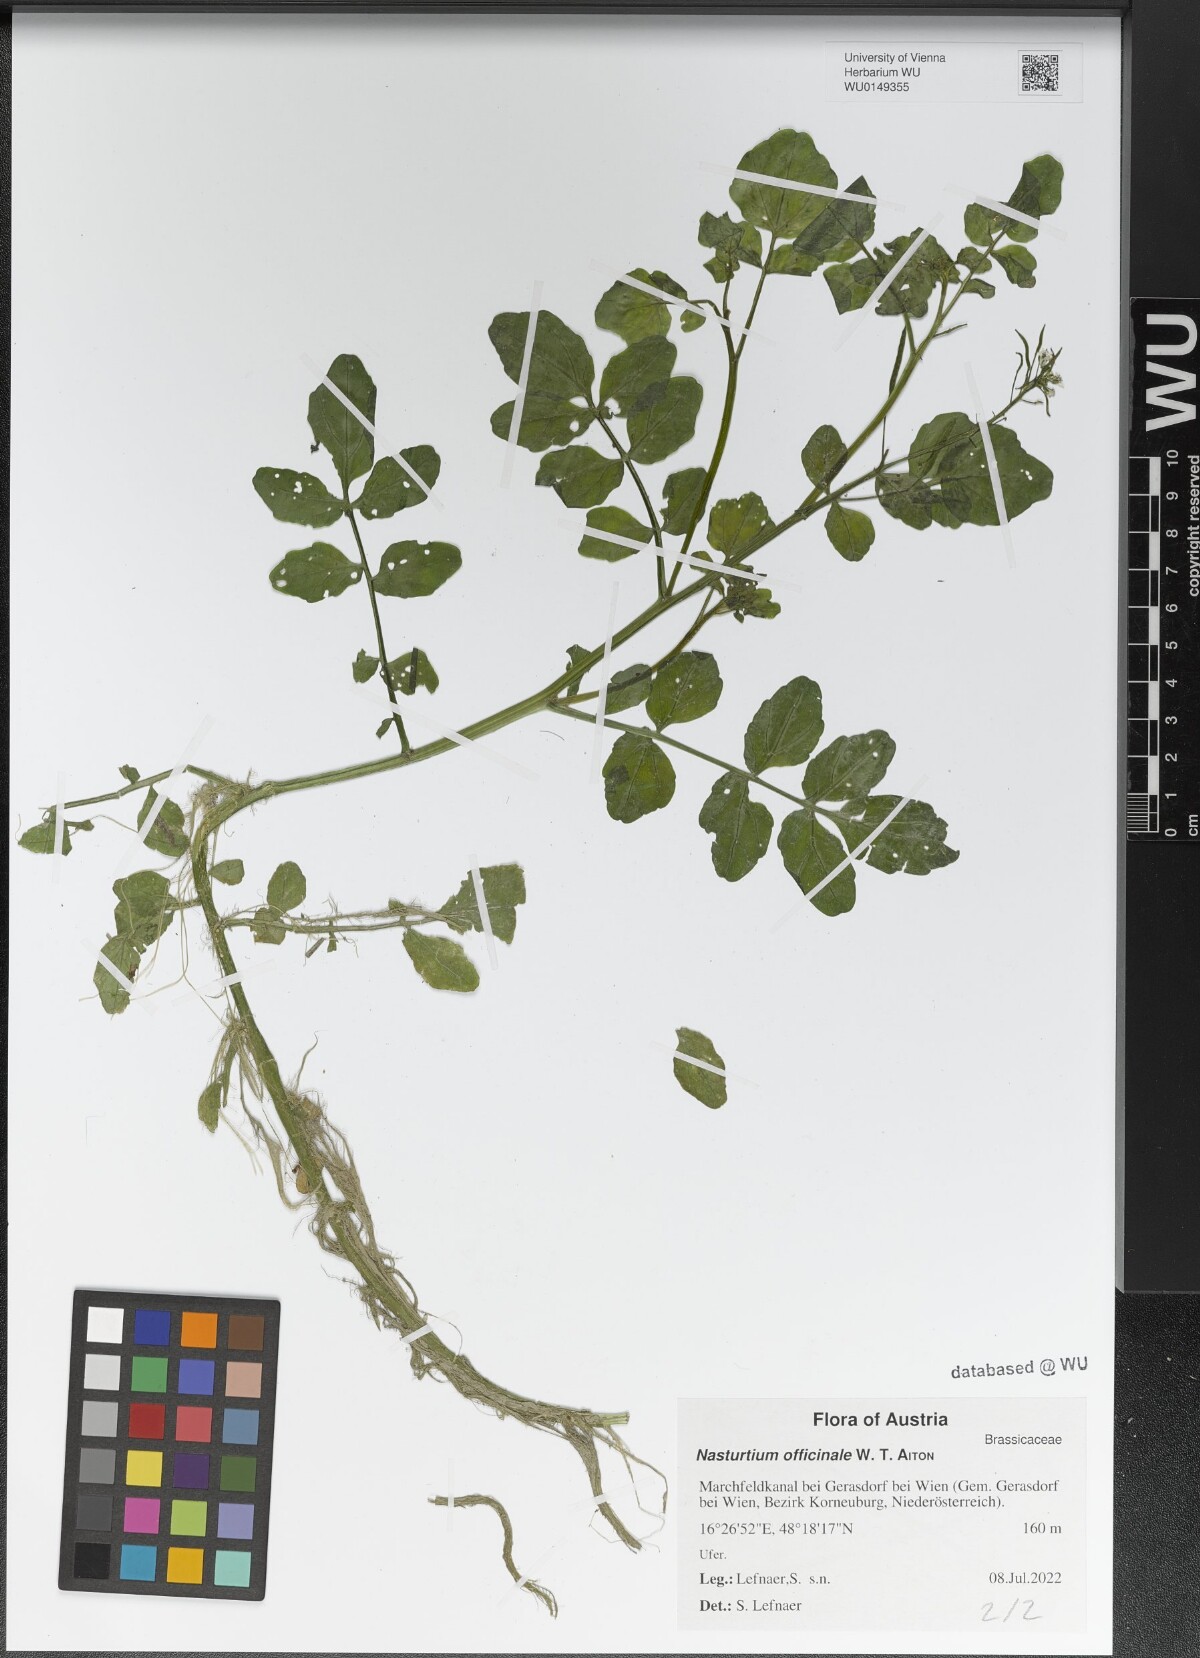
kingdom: Plantae
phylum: Tracheophyta
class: Magnoliopsida
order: Brassicales
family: Brassicaceae
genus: Nasturtium
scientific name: Nasturtium officinale
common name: Watercress
